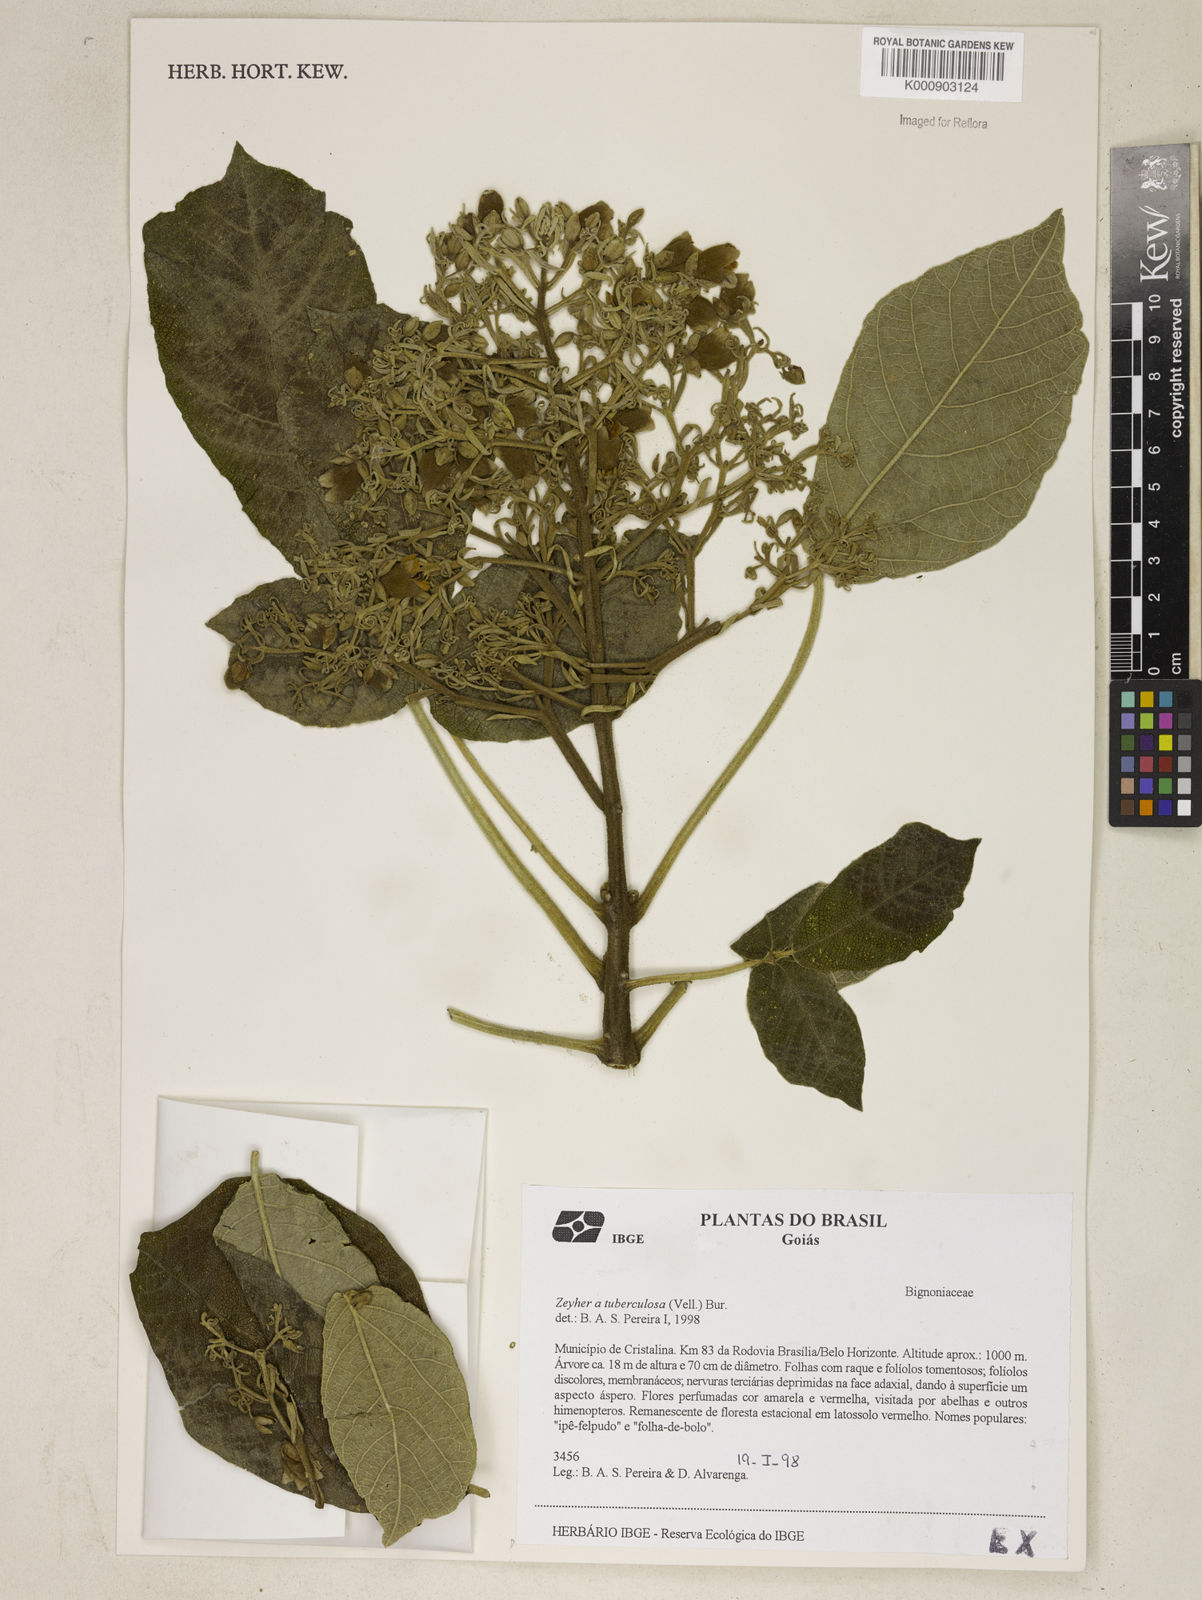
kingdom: Plantae
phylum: Tracheophyta
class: Magnoliopsida
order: Lamiales
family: Bignoniaceae
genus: Zeyheria
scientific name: Zeyheria
